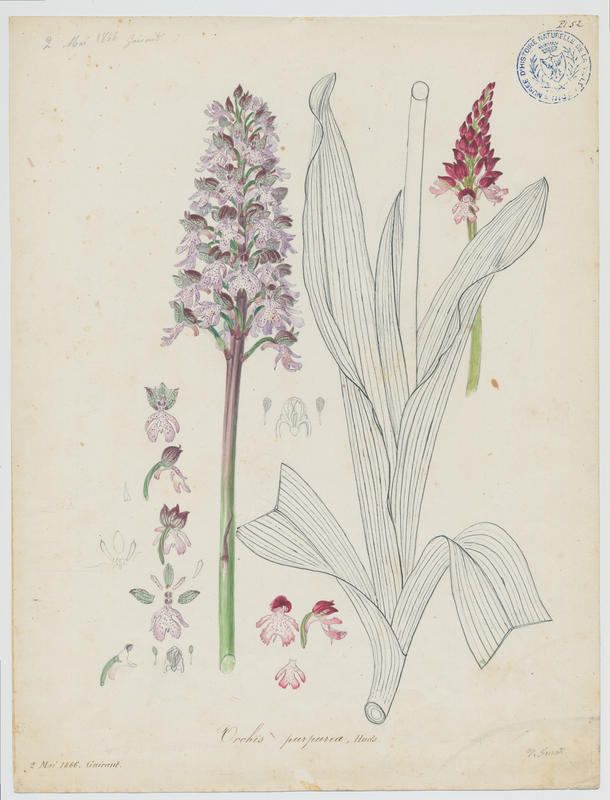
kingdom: Plantae
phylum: Tracheophyta
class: Liliopsida
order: Asparagales
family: Orchidaceae
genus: Orchis
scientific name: Orchis purpurea
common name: Lady orchid
